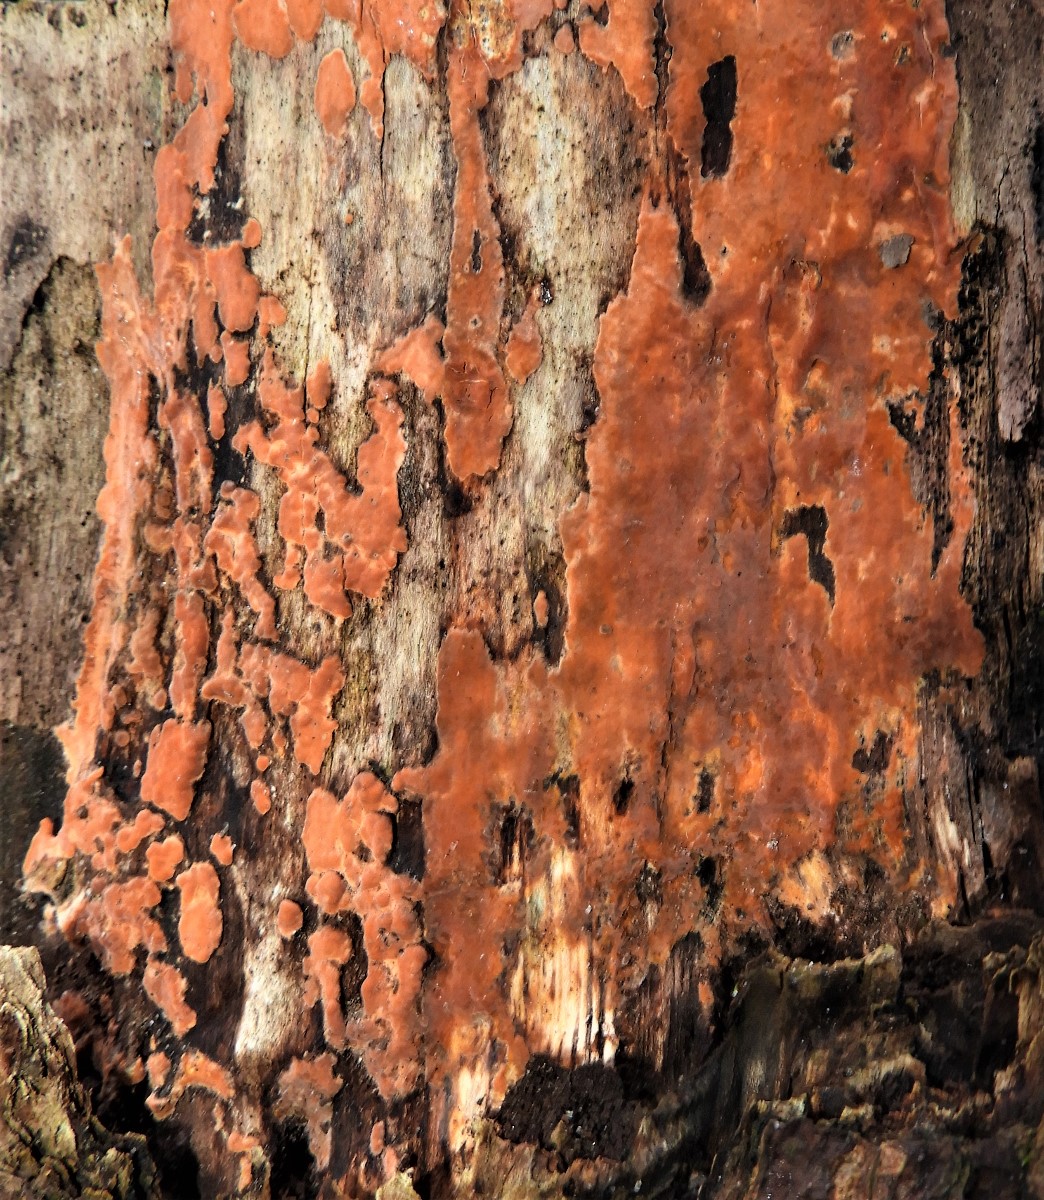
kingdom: Fungi
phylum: Basidiomycota
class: Agaricomycetes
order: Russulales
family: Peniophoraceae
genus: Peniophora
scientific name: Peniophora incarnata
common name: laksefarvet voksskind
